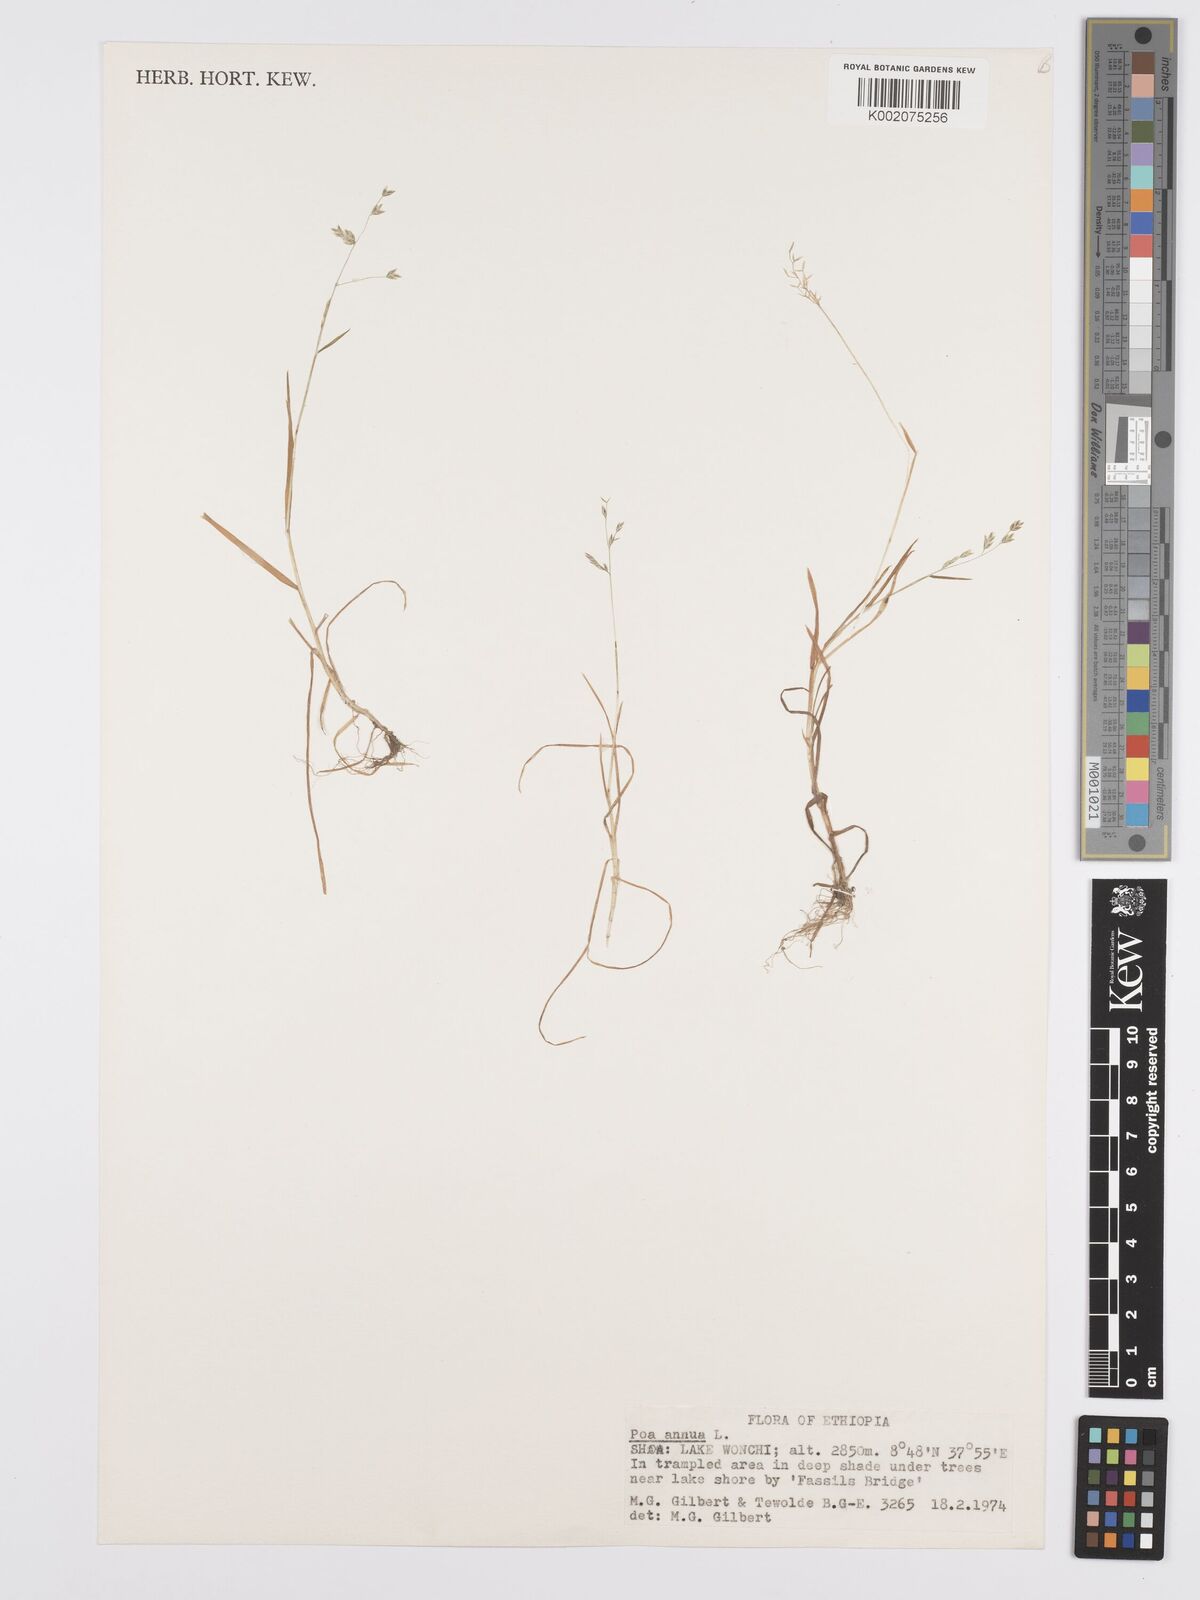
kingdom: Plantae
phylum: Tracheophyta
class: Liliopsida
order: Poales
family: Poaceae
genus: Poa
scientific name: Poa annua
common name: Annual bluegrass
